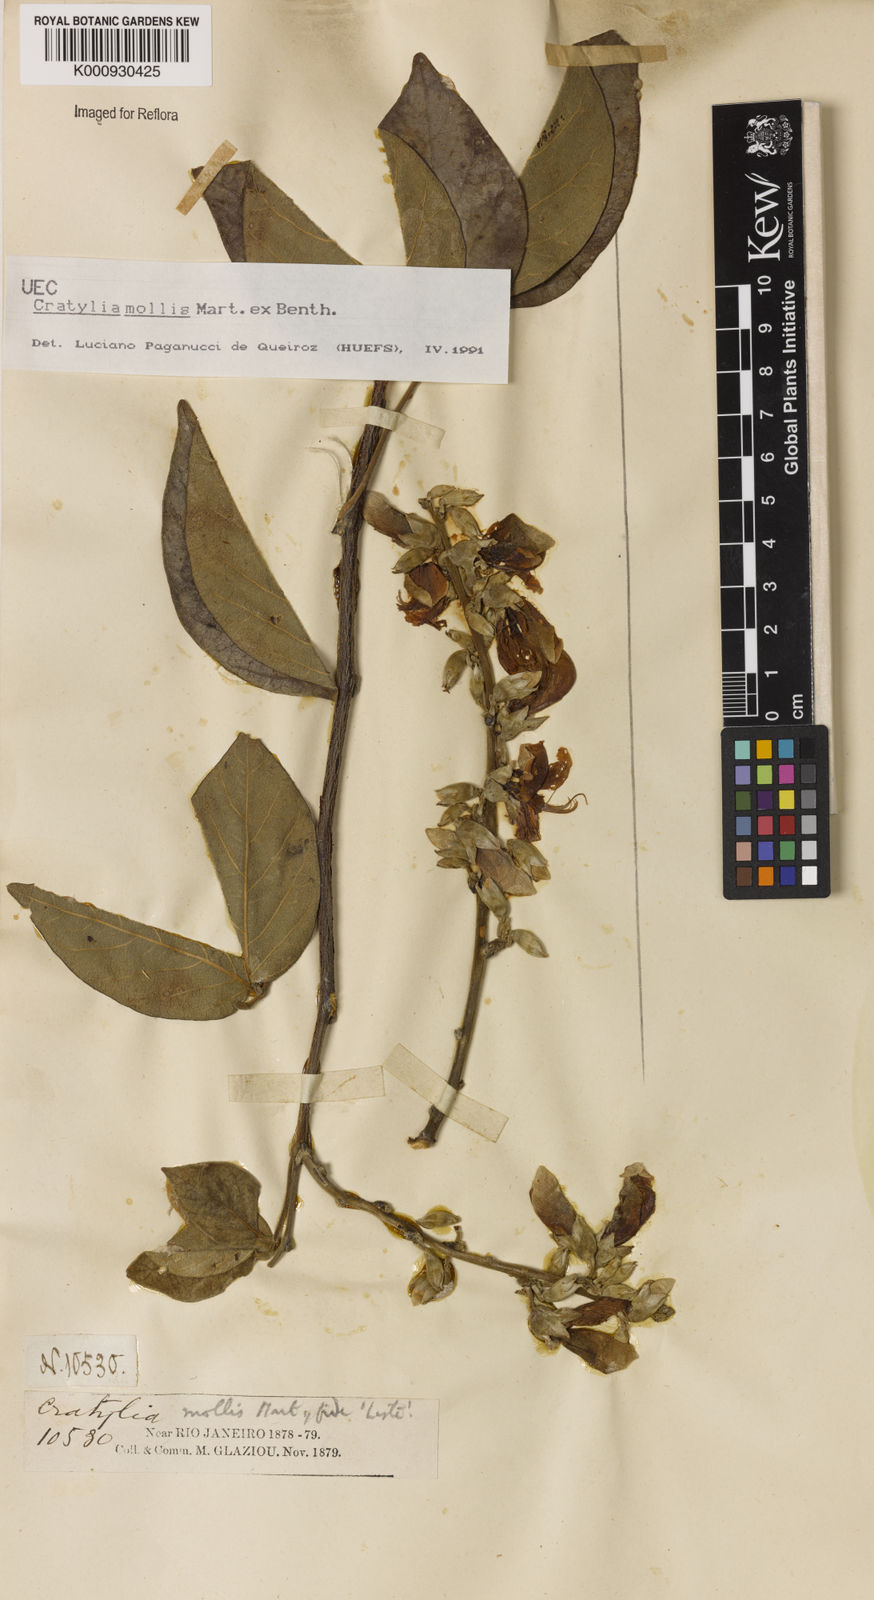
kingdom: Plantae
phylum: Tracheophyta
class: Magnoliopsida
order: Fabales
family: Fabaceae
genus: Cratylia
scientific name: Cratylia mollis
